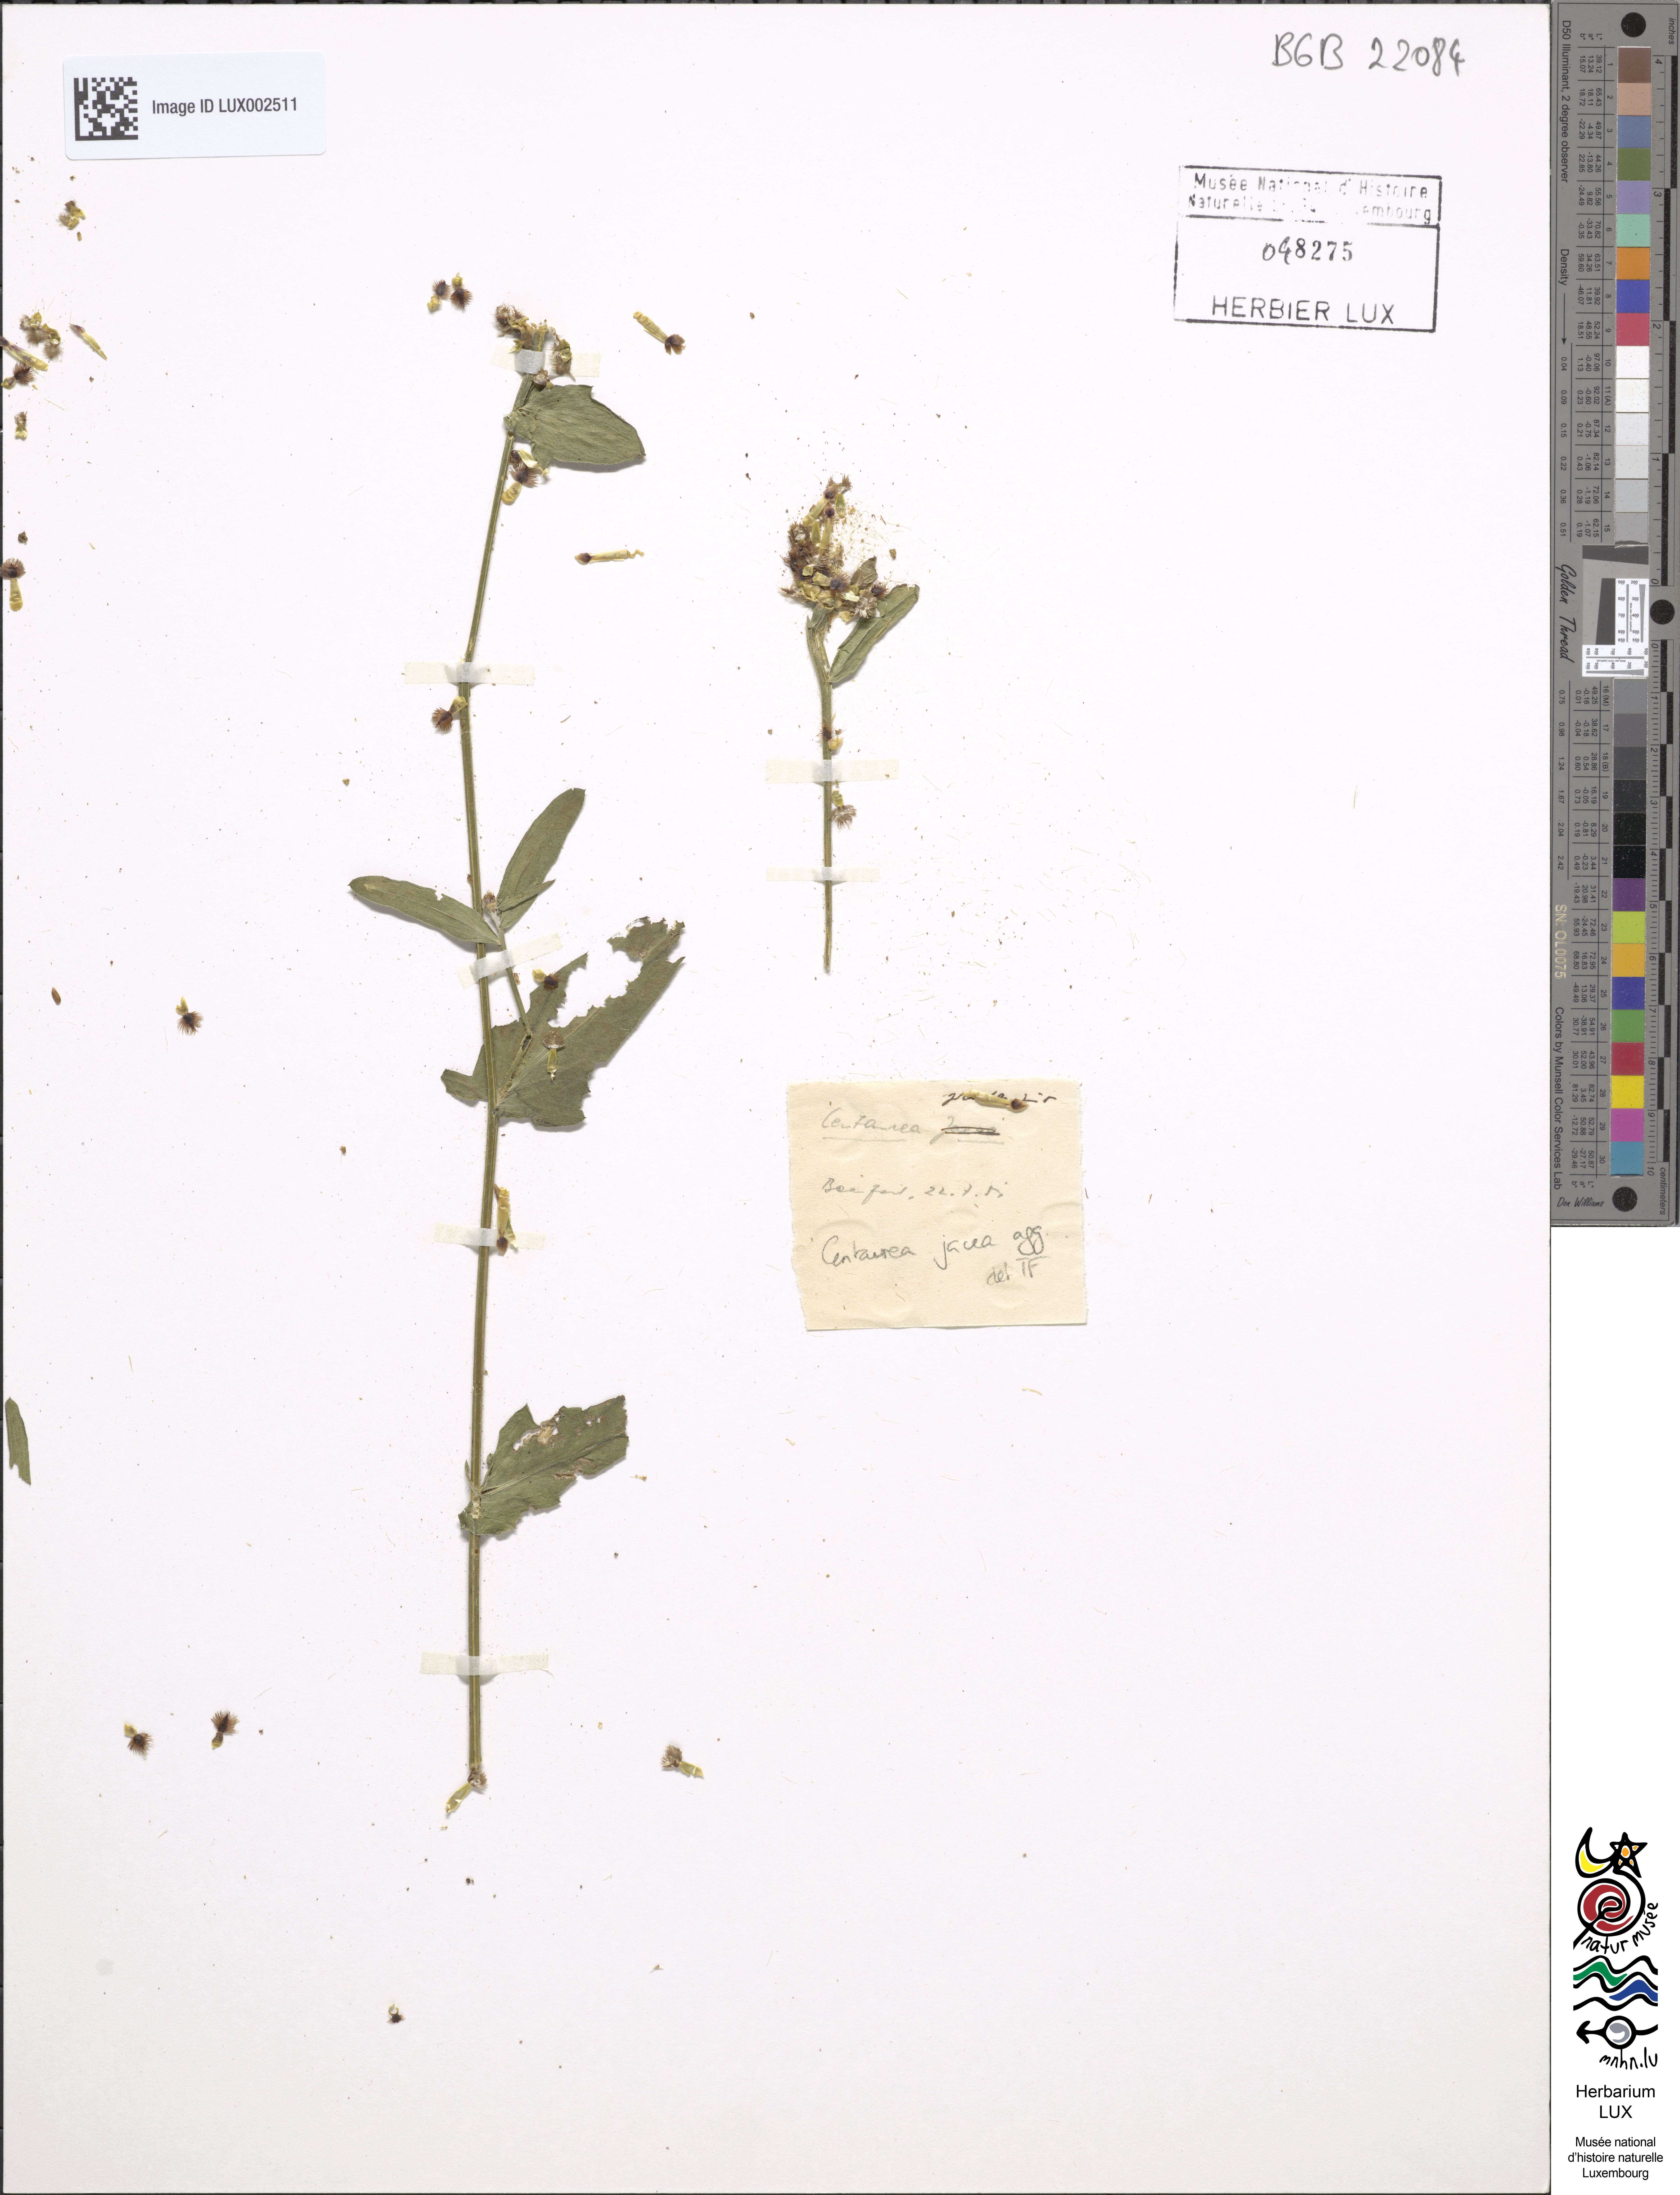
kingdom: Plantae
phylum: Tracheophyta
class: Magnoliopsida
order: Asterales
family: Asteraceae
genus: Centaurea
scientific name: Centaurea jacea
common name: Brown knapweed
